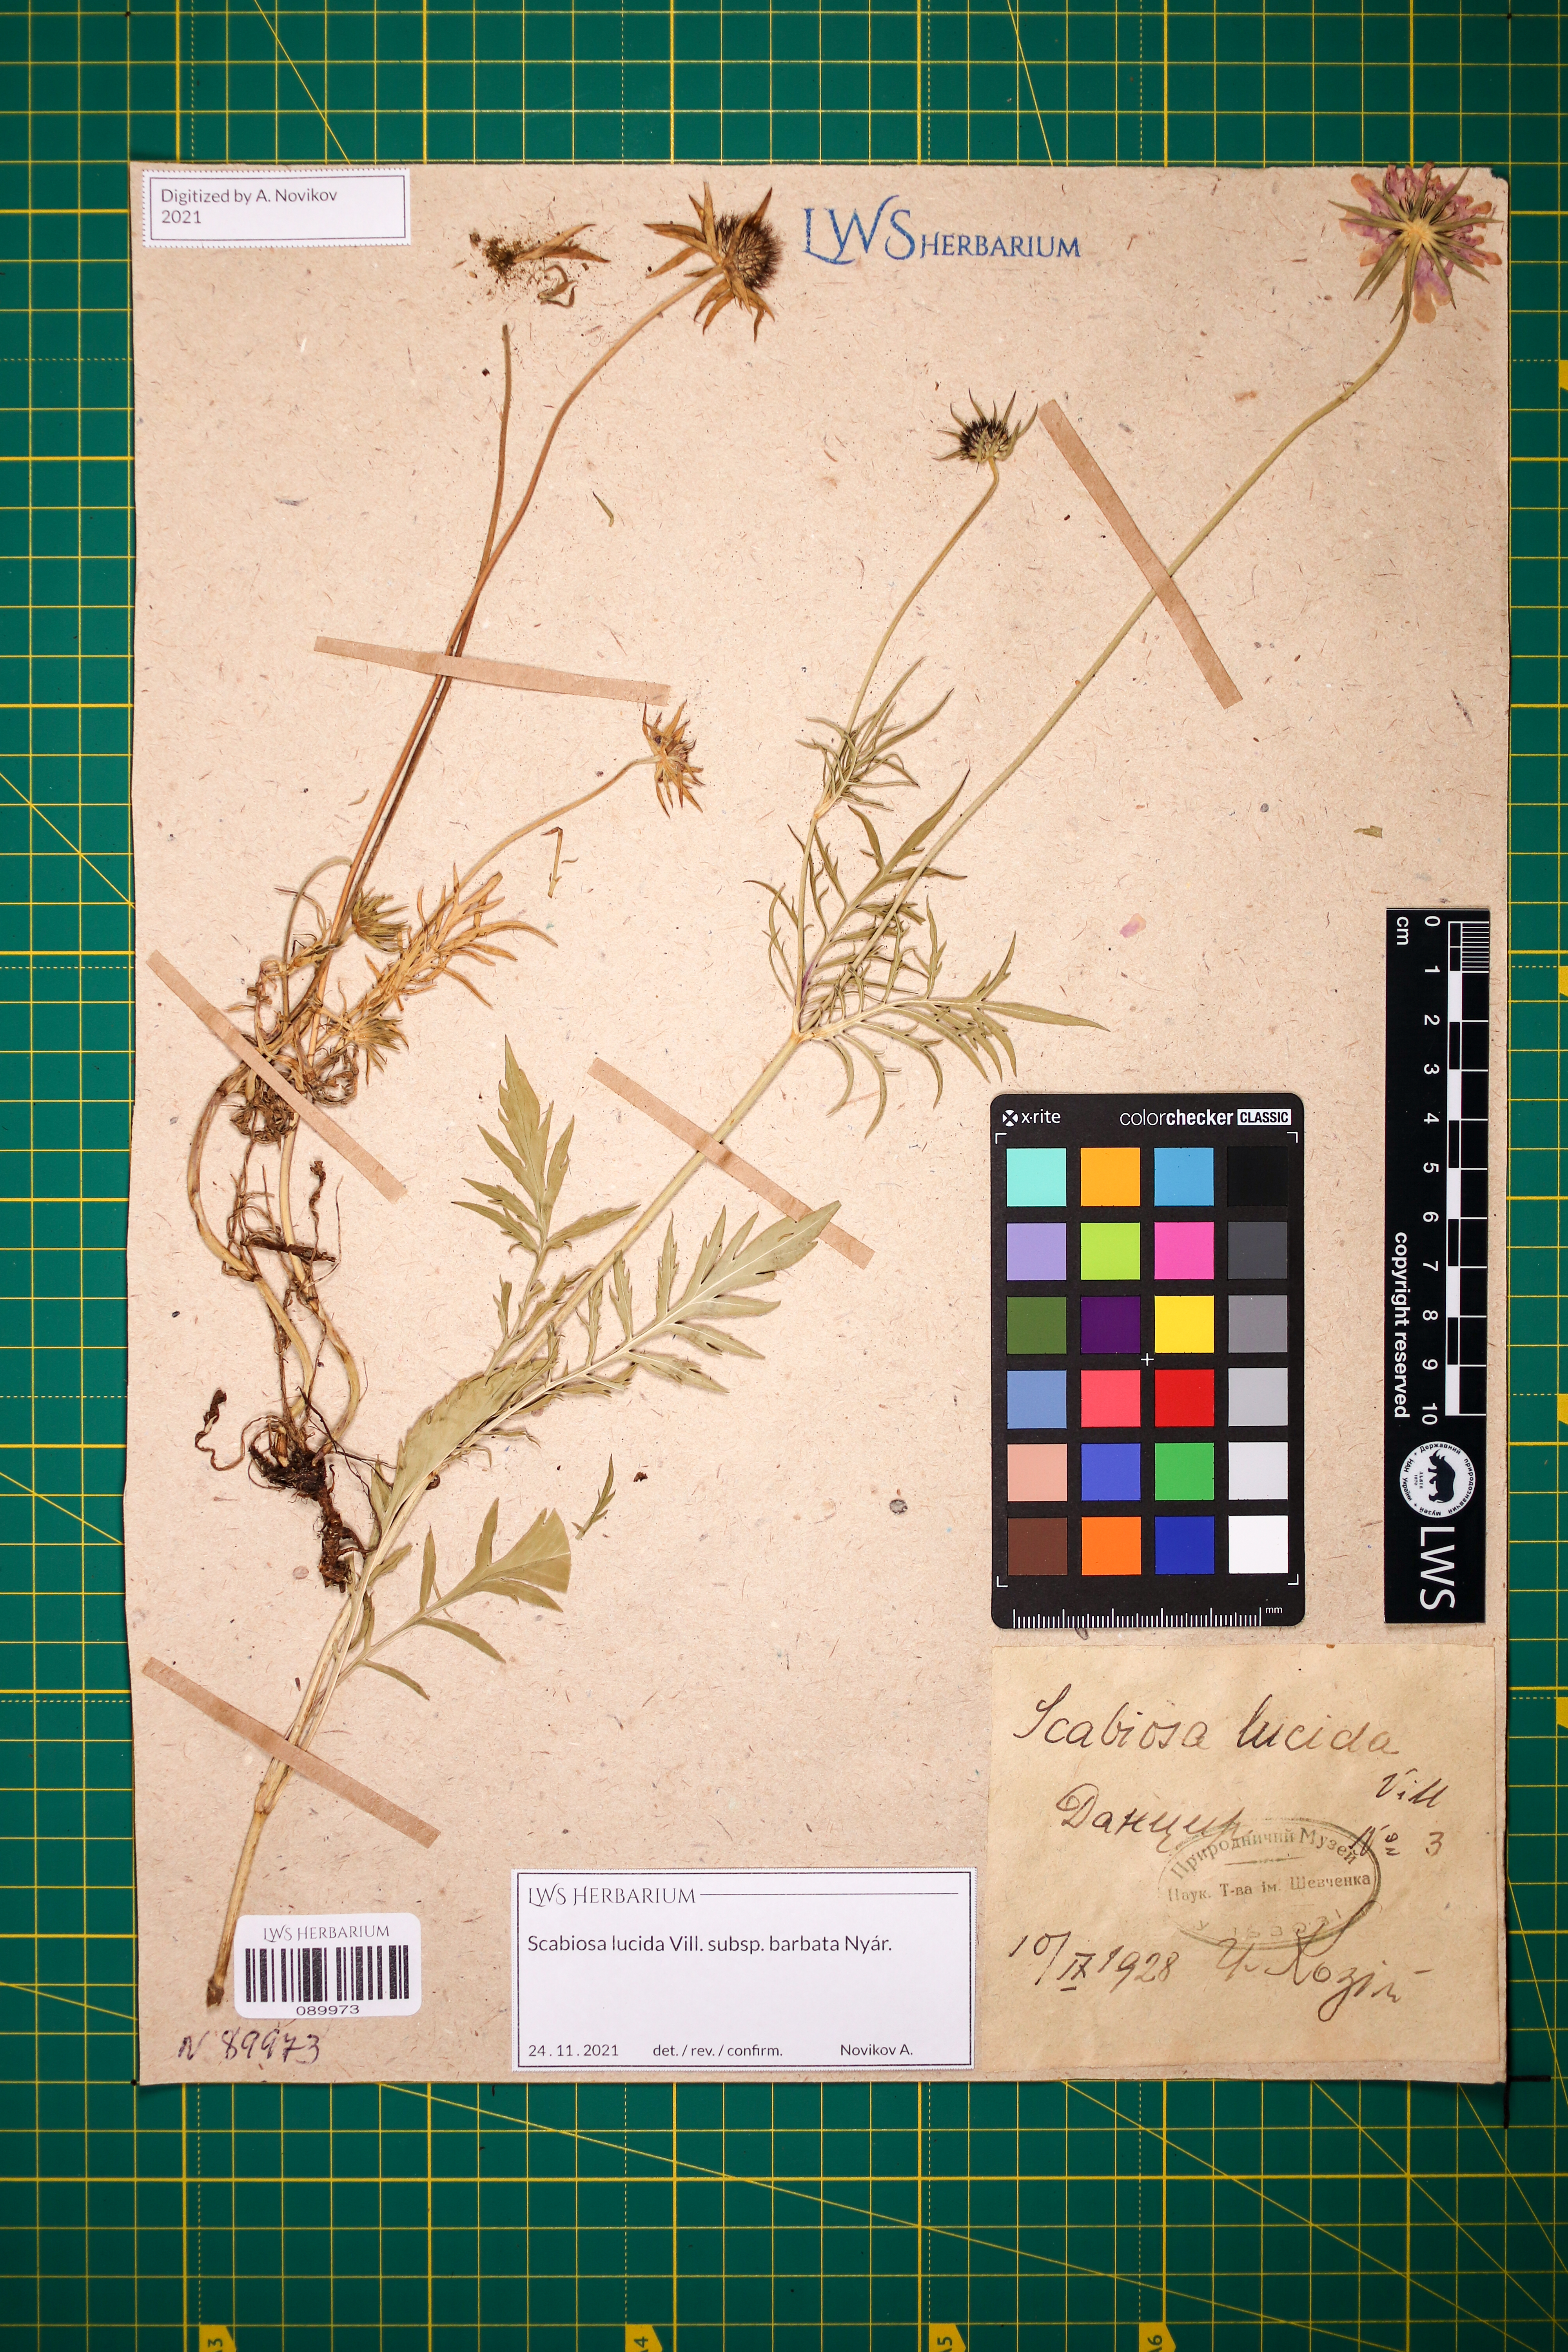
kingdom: Plantae
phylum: Tracheophyta
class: Magnoliopsida
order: Dipsacales
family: Caprifoliaceae
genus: Scabiosa
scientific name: Scabiosa lucida
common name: Shining scabious
